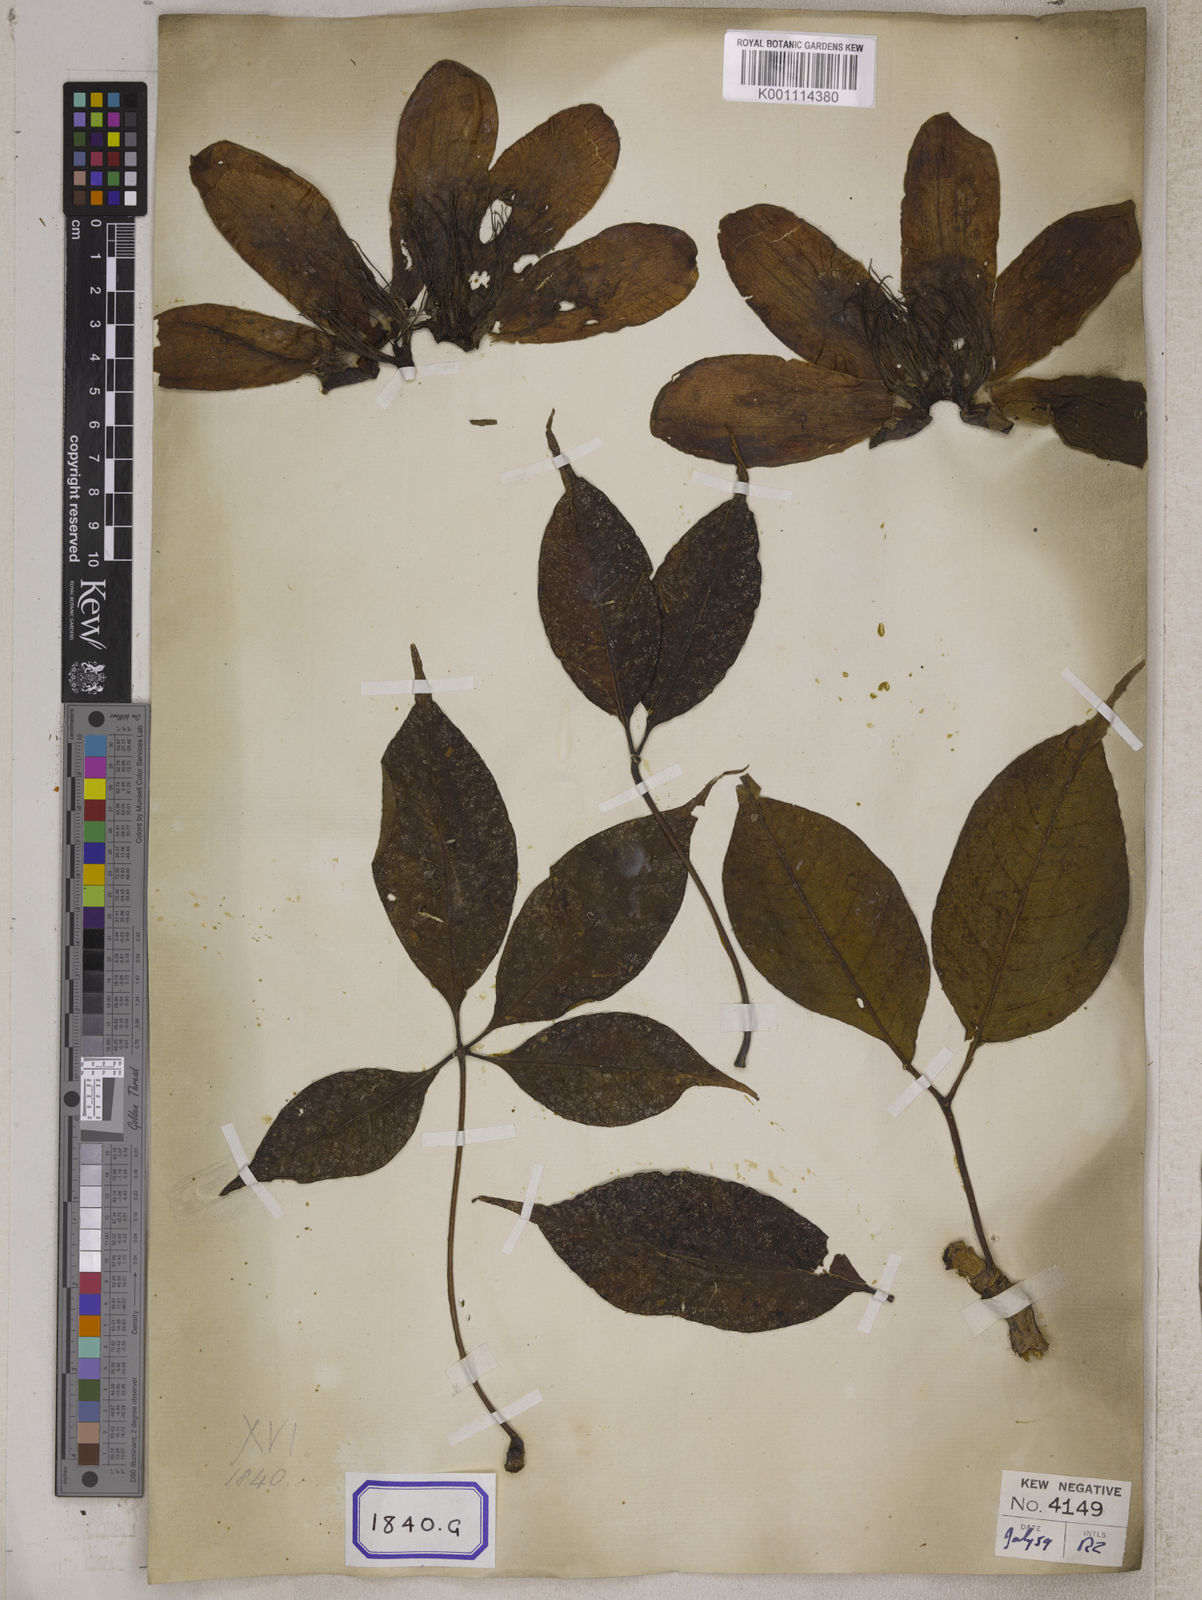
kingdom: Plantae
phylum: Tracheophyta
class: Magnoliopsida
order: Malvales
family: Malvaceae
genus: Bombax
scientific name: Bombax ceiba
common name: Northern-cottonwood
